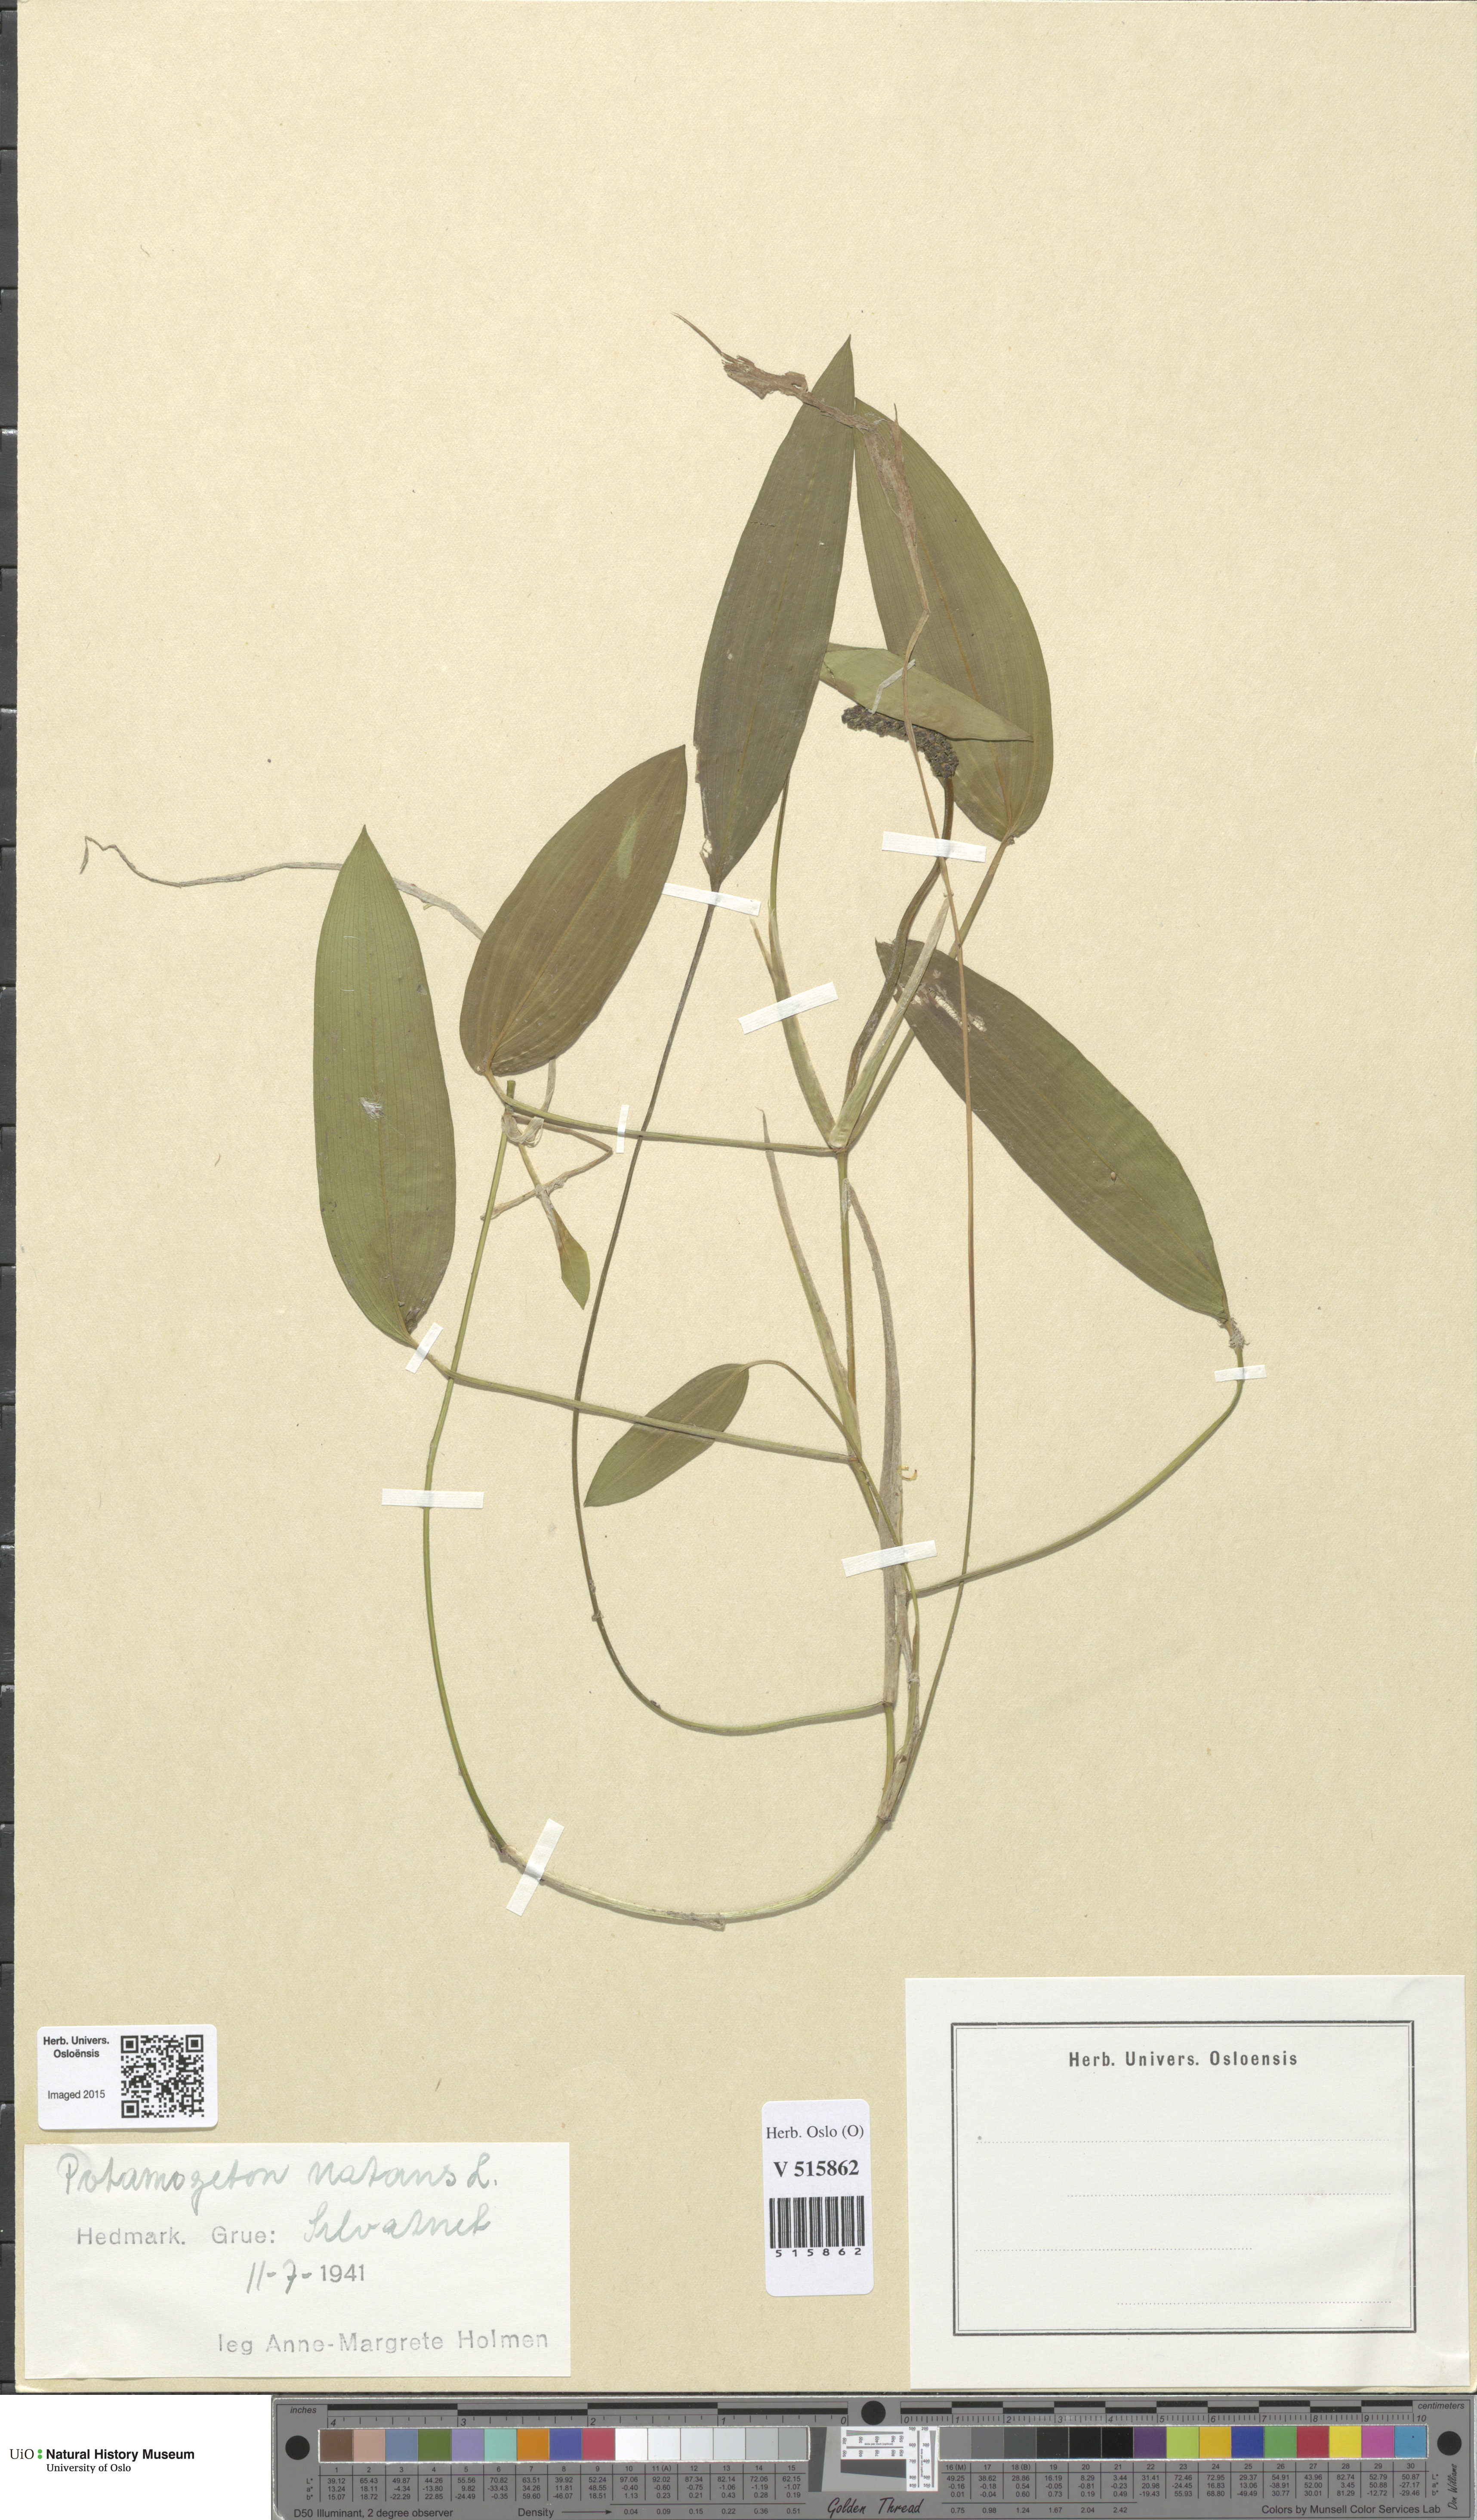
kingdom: Plantae
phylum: Tracheophyta
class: Liliopsida
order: Alismatales
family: Potamogetonaceae
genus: Potamogeton
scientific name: Potamogeton natans
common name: Broad-leaved pondweed
